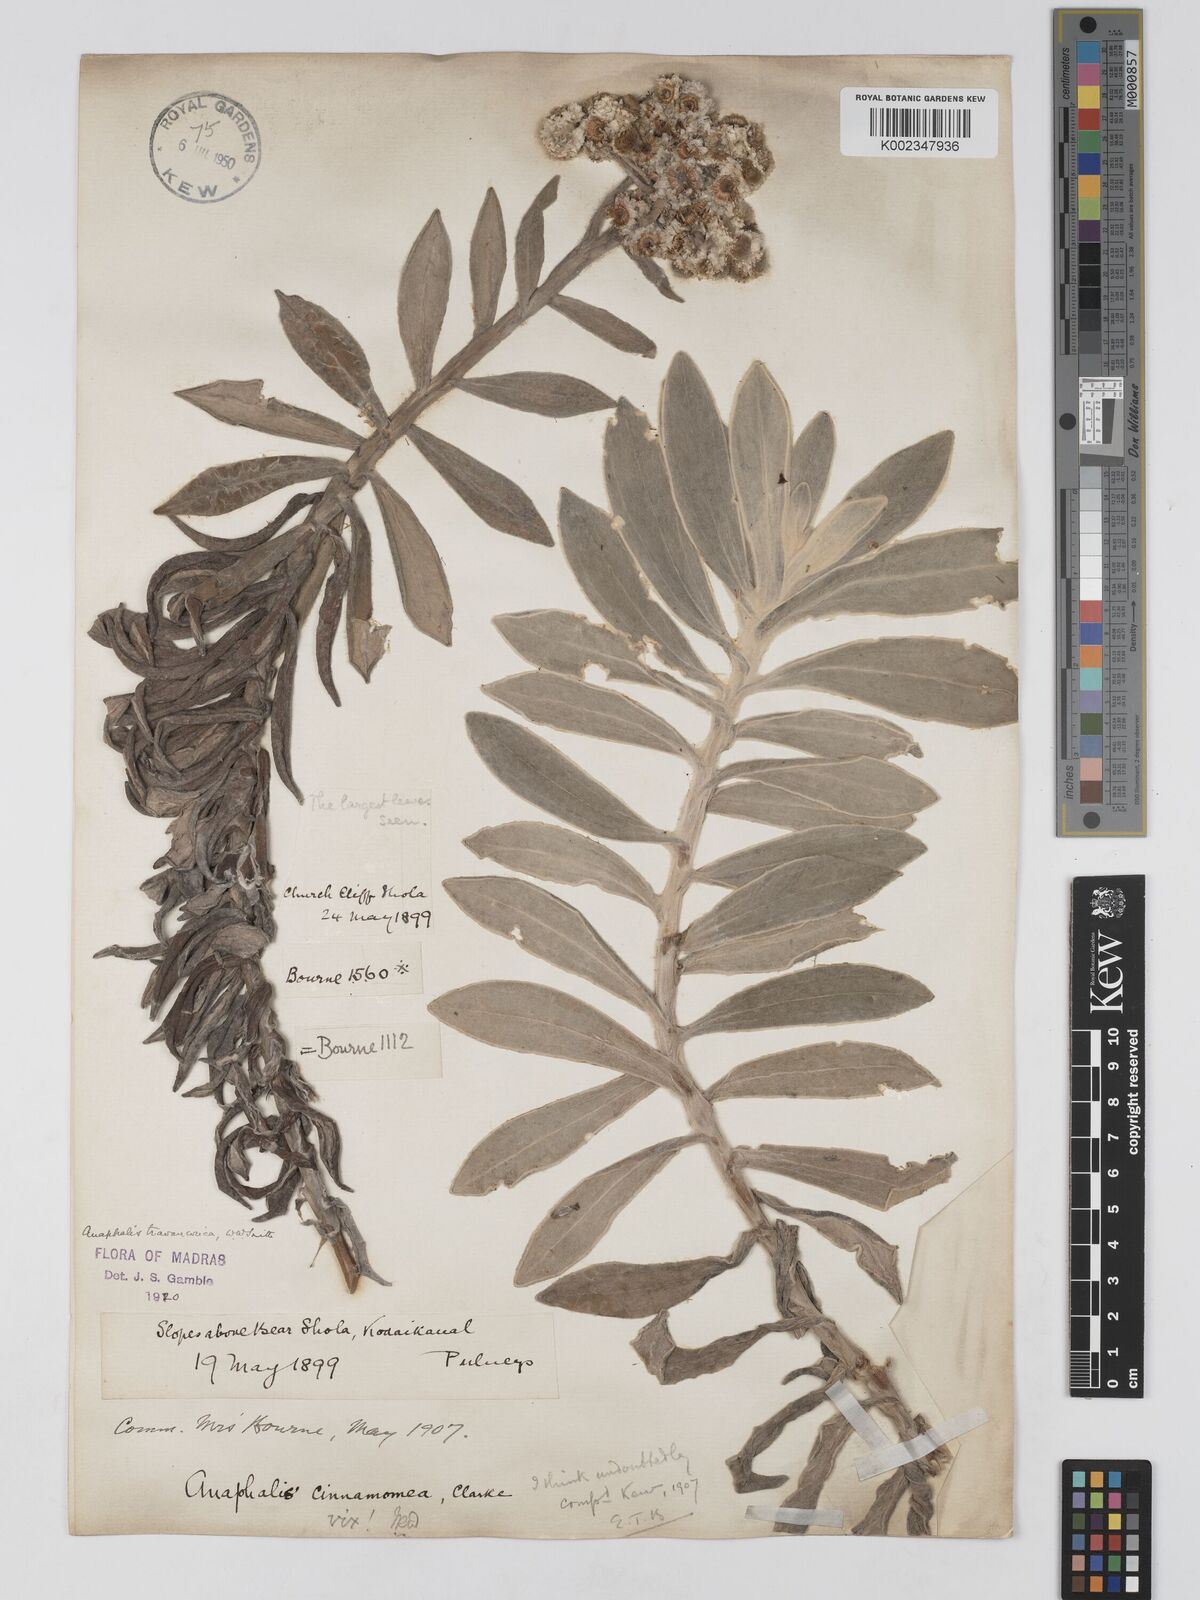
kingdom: Plantae
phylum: Tracheophyta
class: Magnoliopsida
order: Asterales
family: Asteraceae
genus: Anaphalis
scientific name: Anaphalis travancorica
